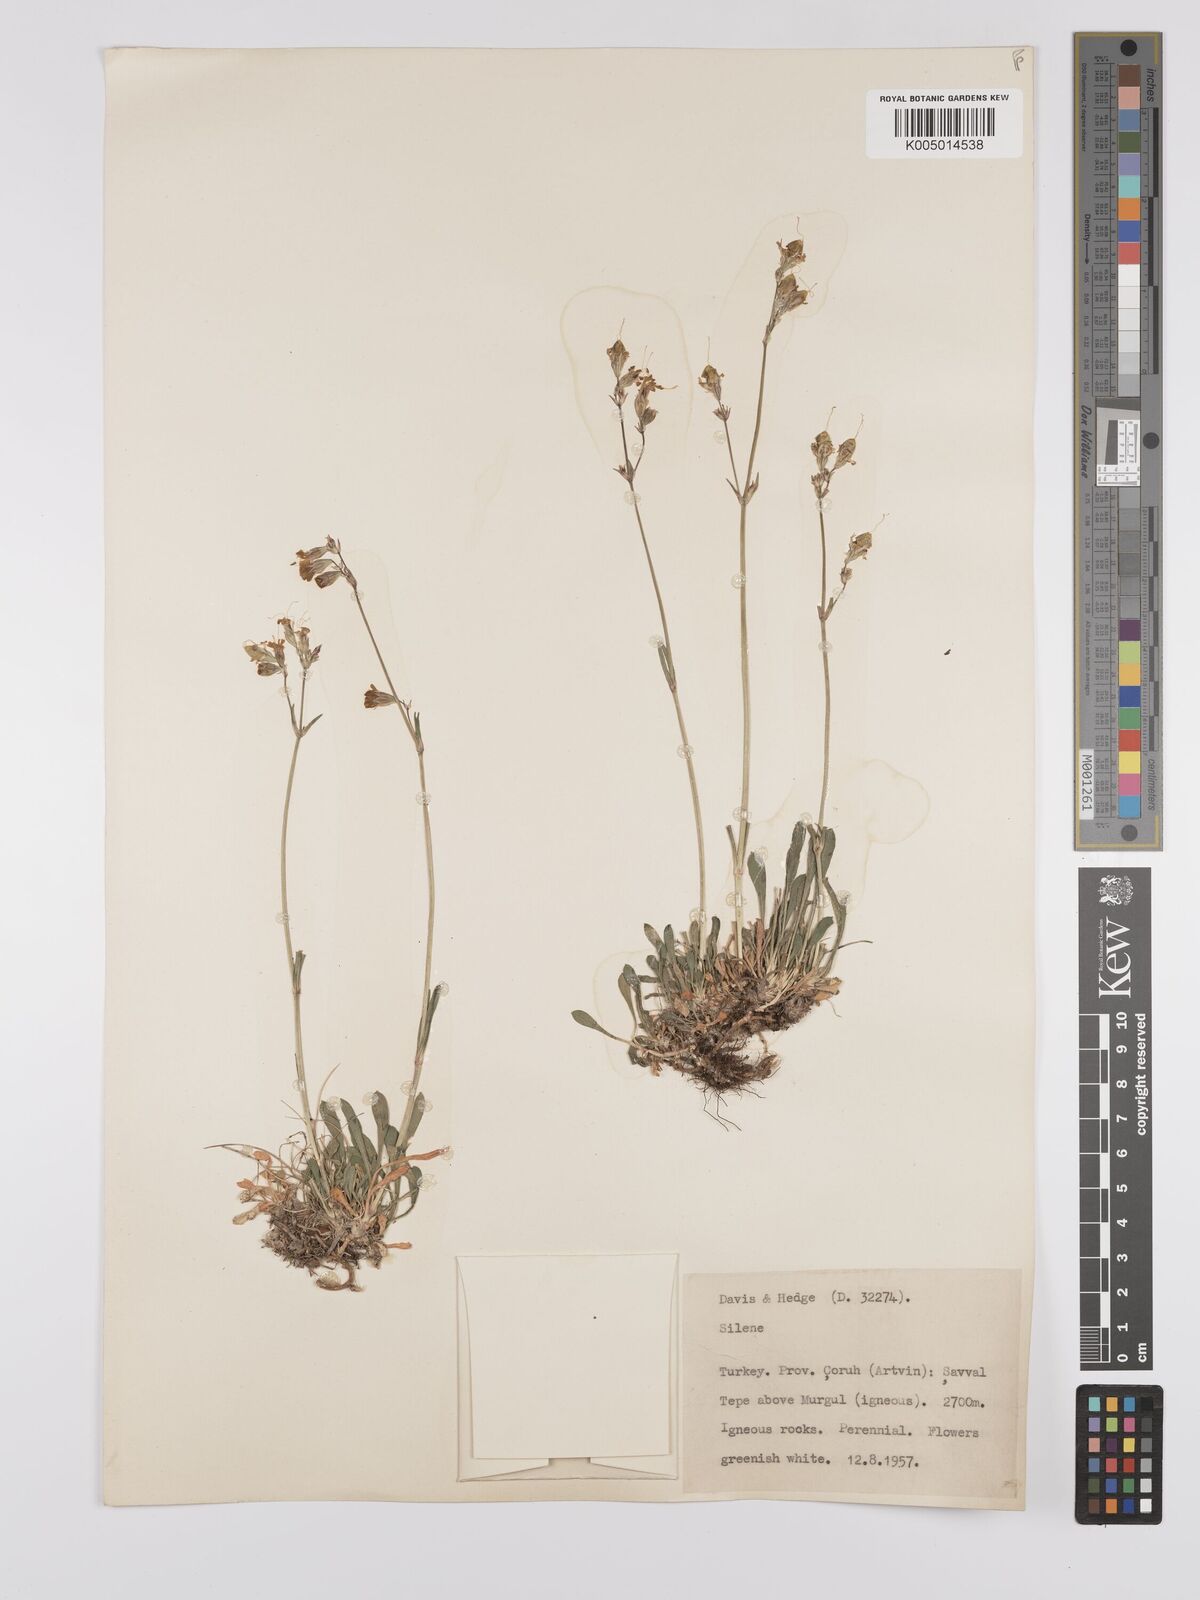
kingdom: Plantae
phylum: Tracheophyta
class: Magnoliopsida
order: Caryophyllales
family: Caryophyllaceae
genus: Silene
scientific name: Silene
